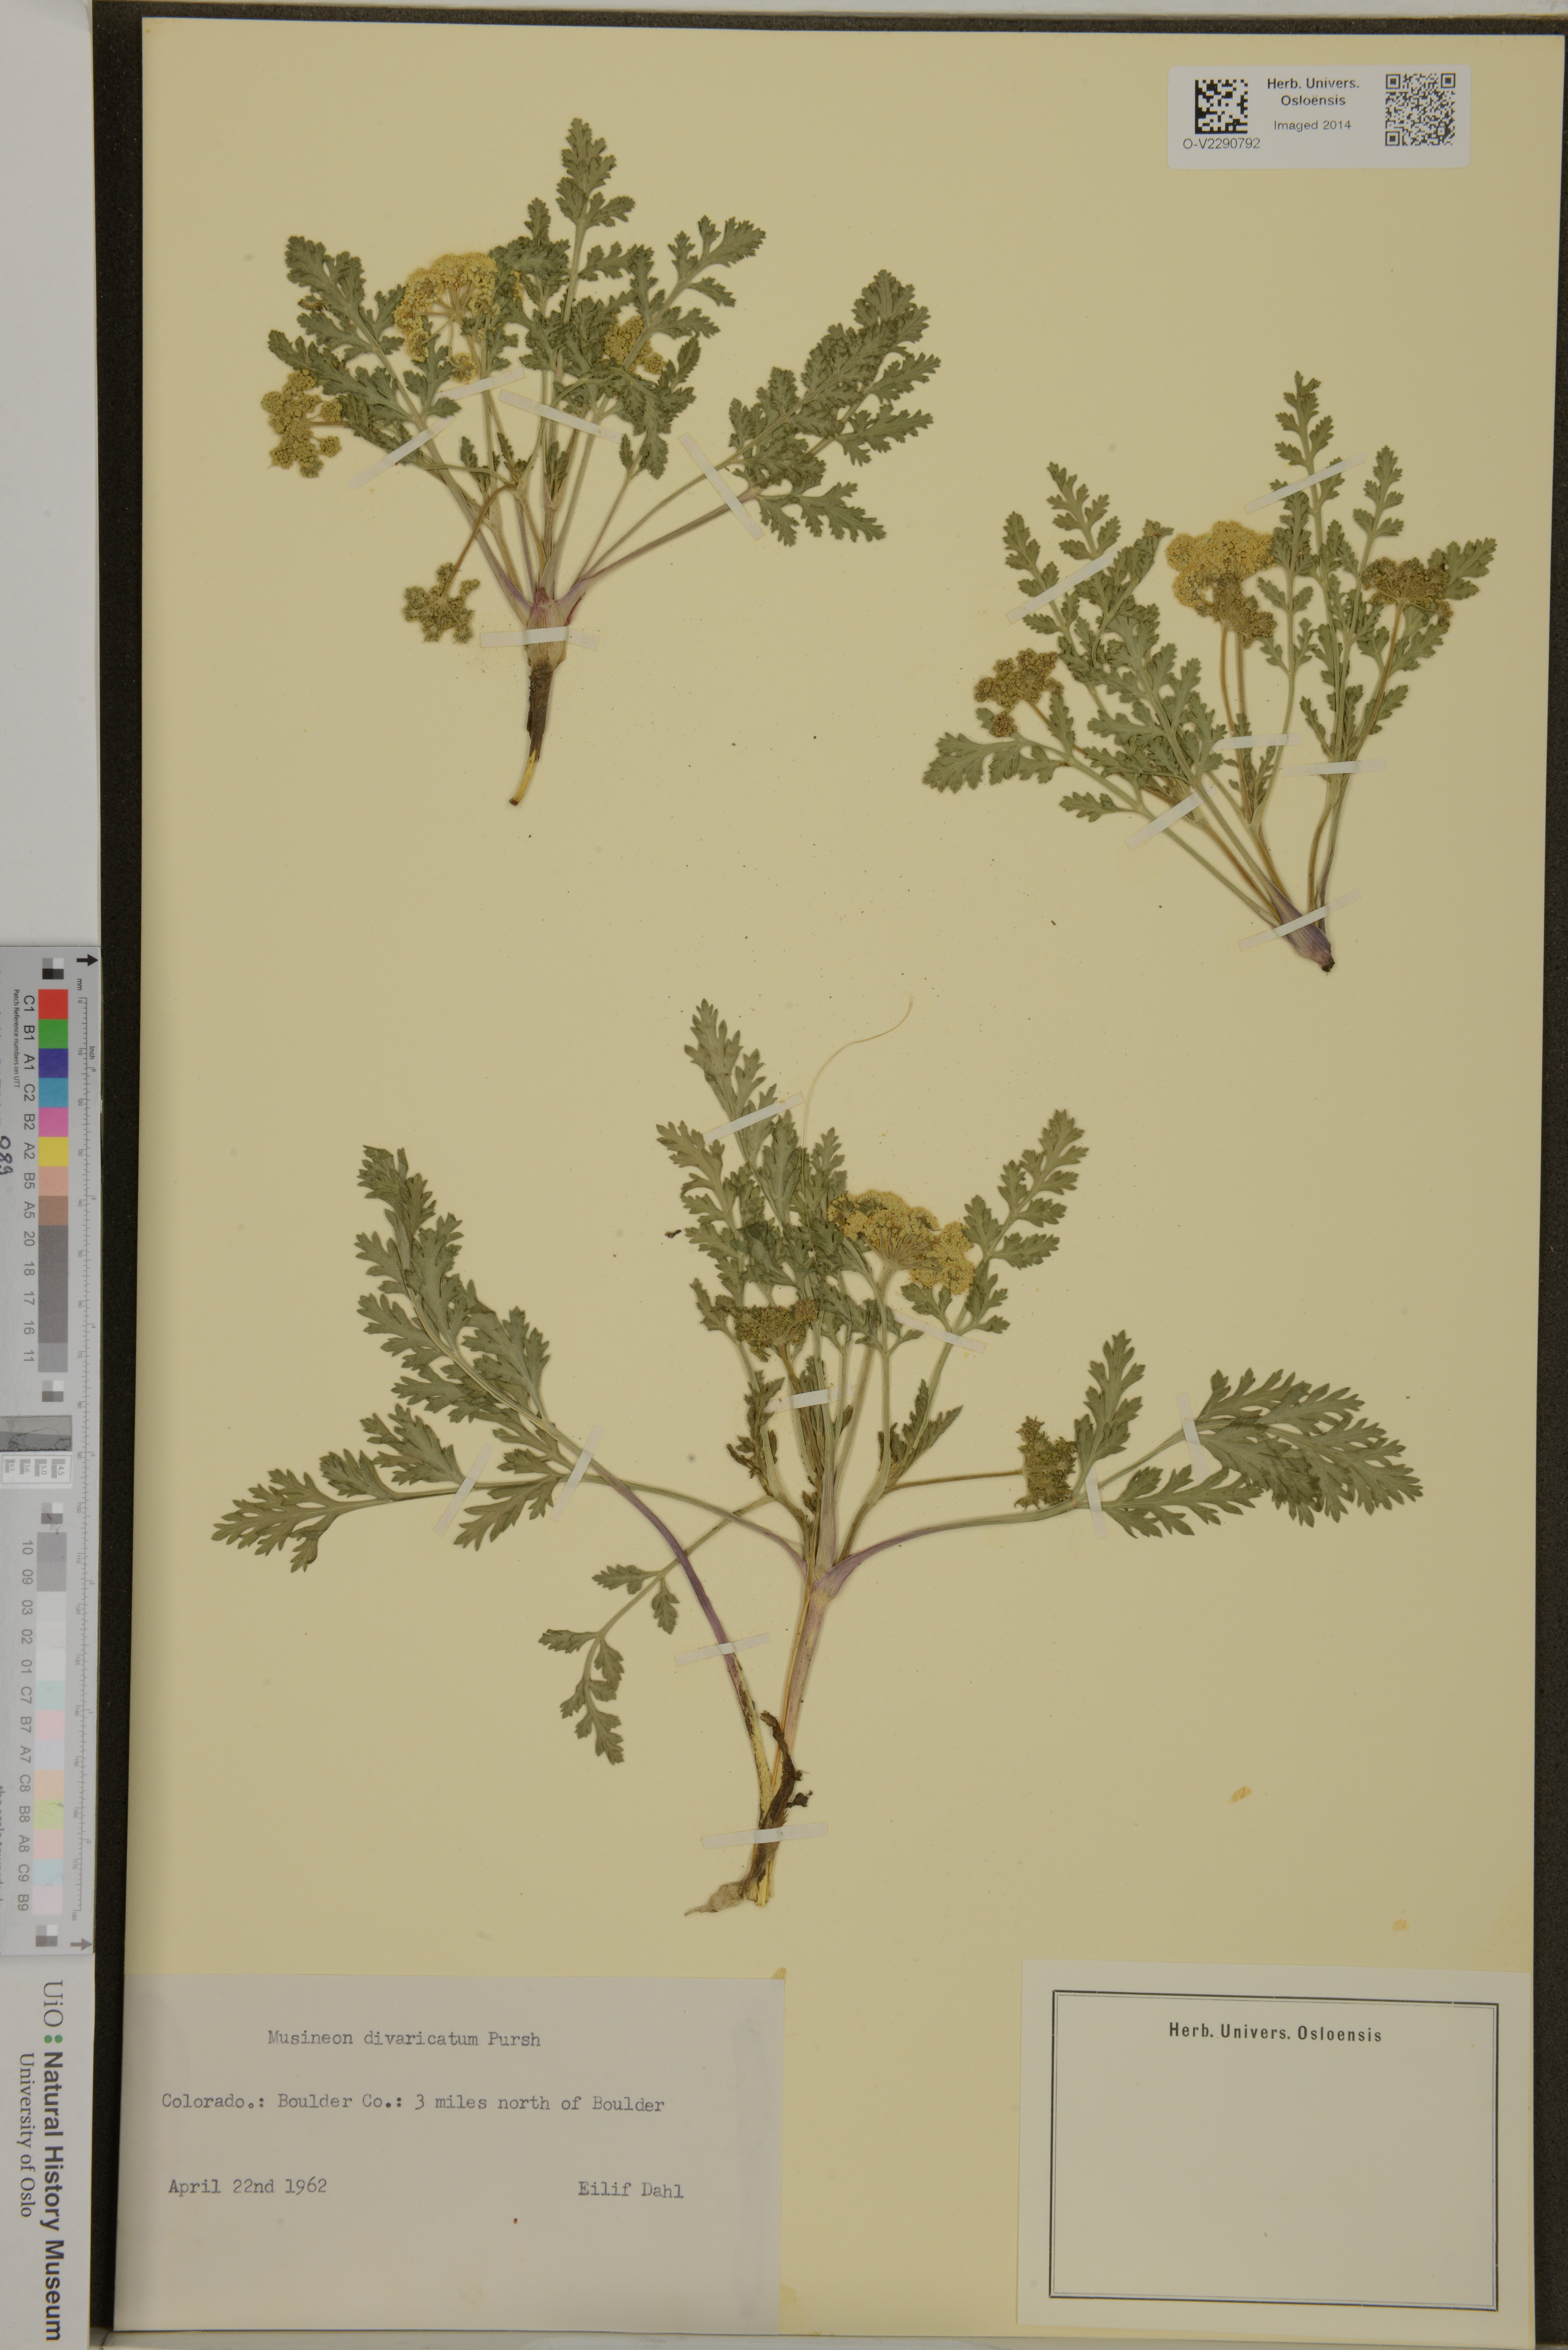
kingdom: Plantae
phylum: Tracheophyta
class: Magnoliopsida
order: Apiales
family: Apiaceae
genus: Musineon
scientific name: Musineon divaricatum
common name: Plains musineon
